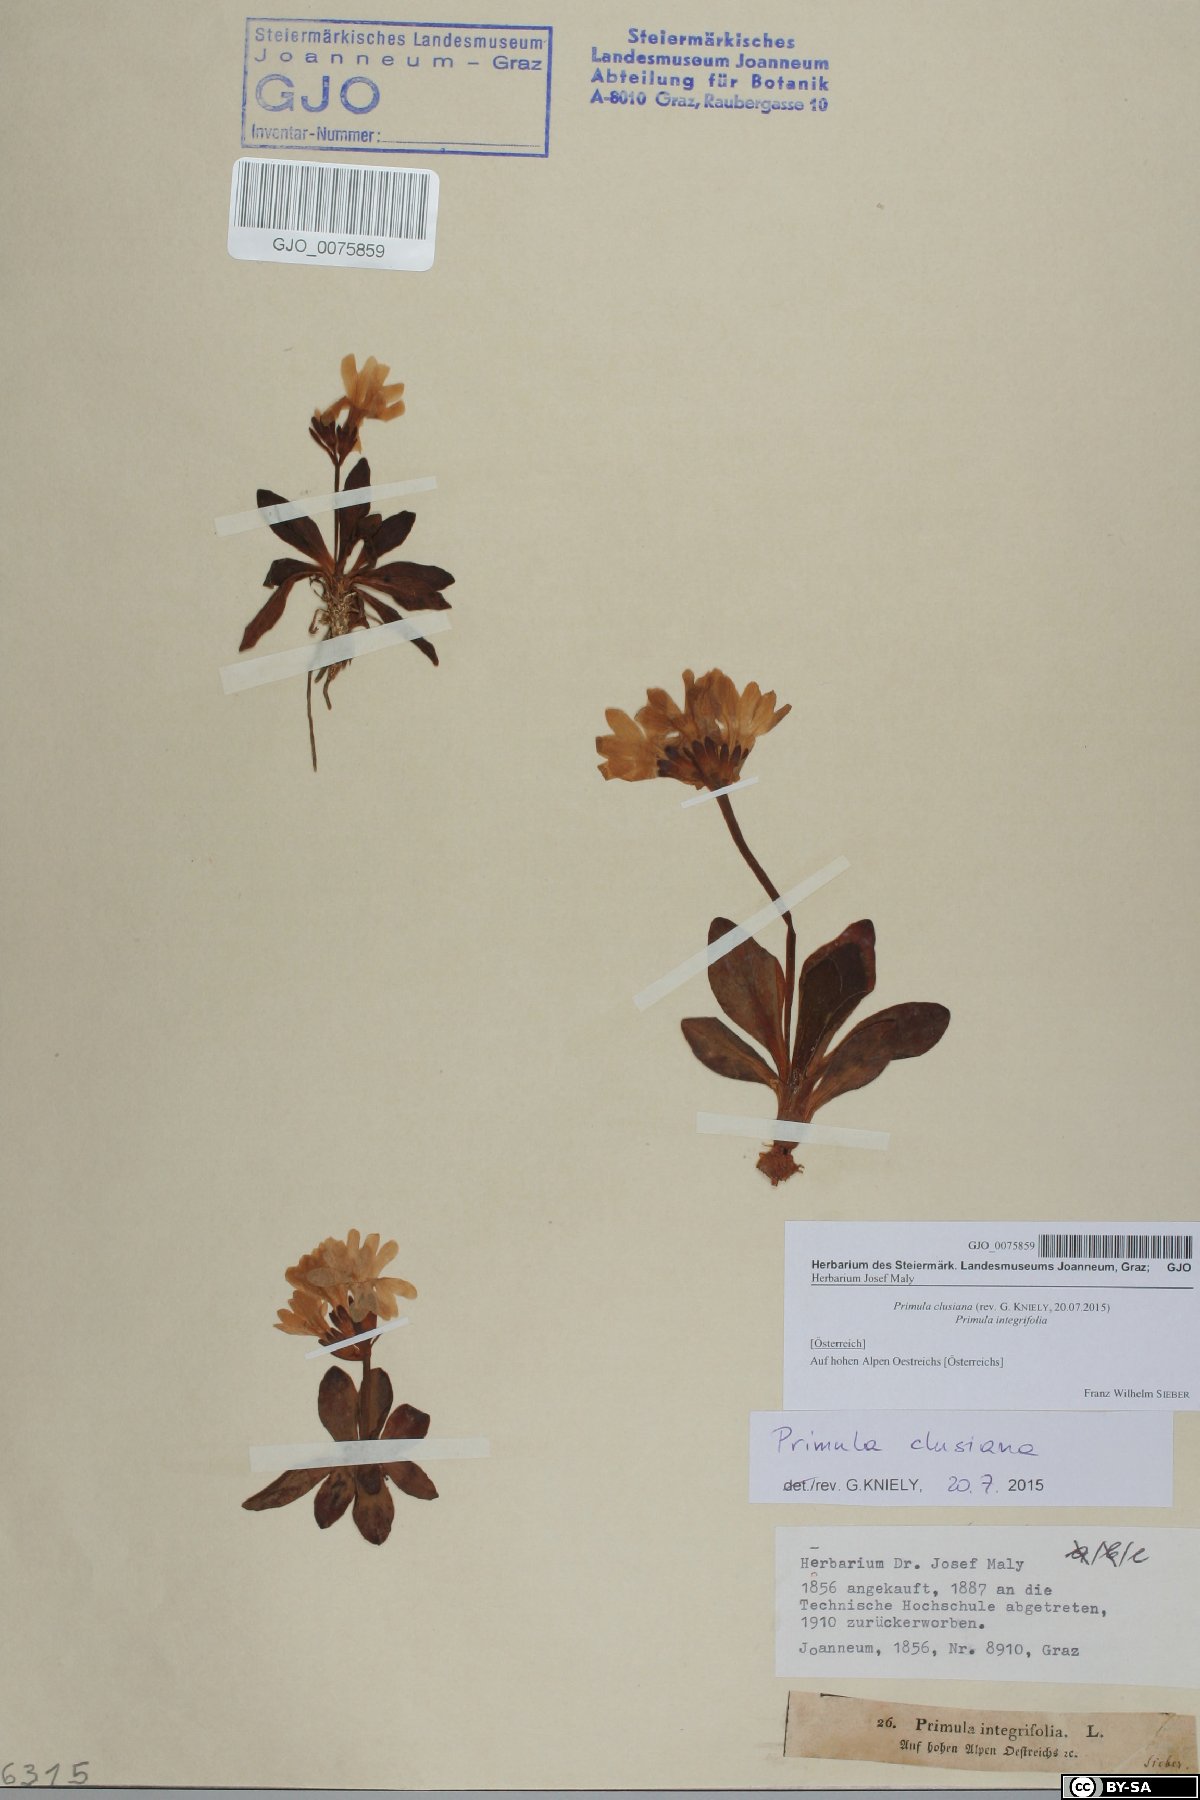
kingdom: Plantae
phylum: Tracheophyta
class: Magnoliopsida
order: Ericales
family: Primulaceae
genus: Primula
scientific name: Primula clusiana
